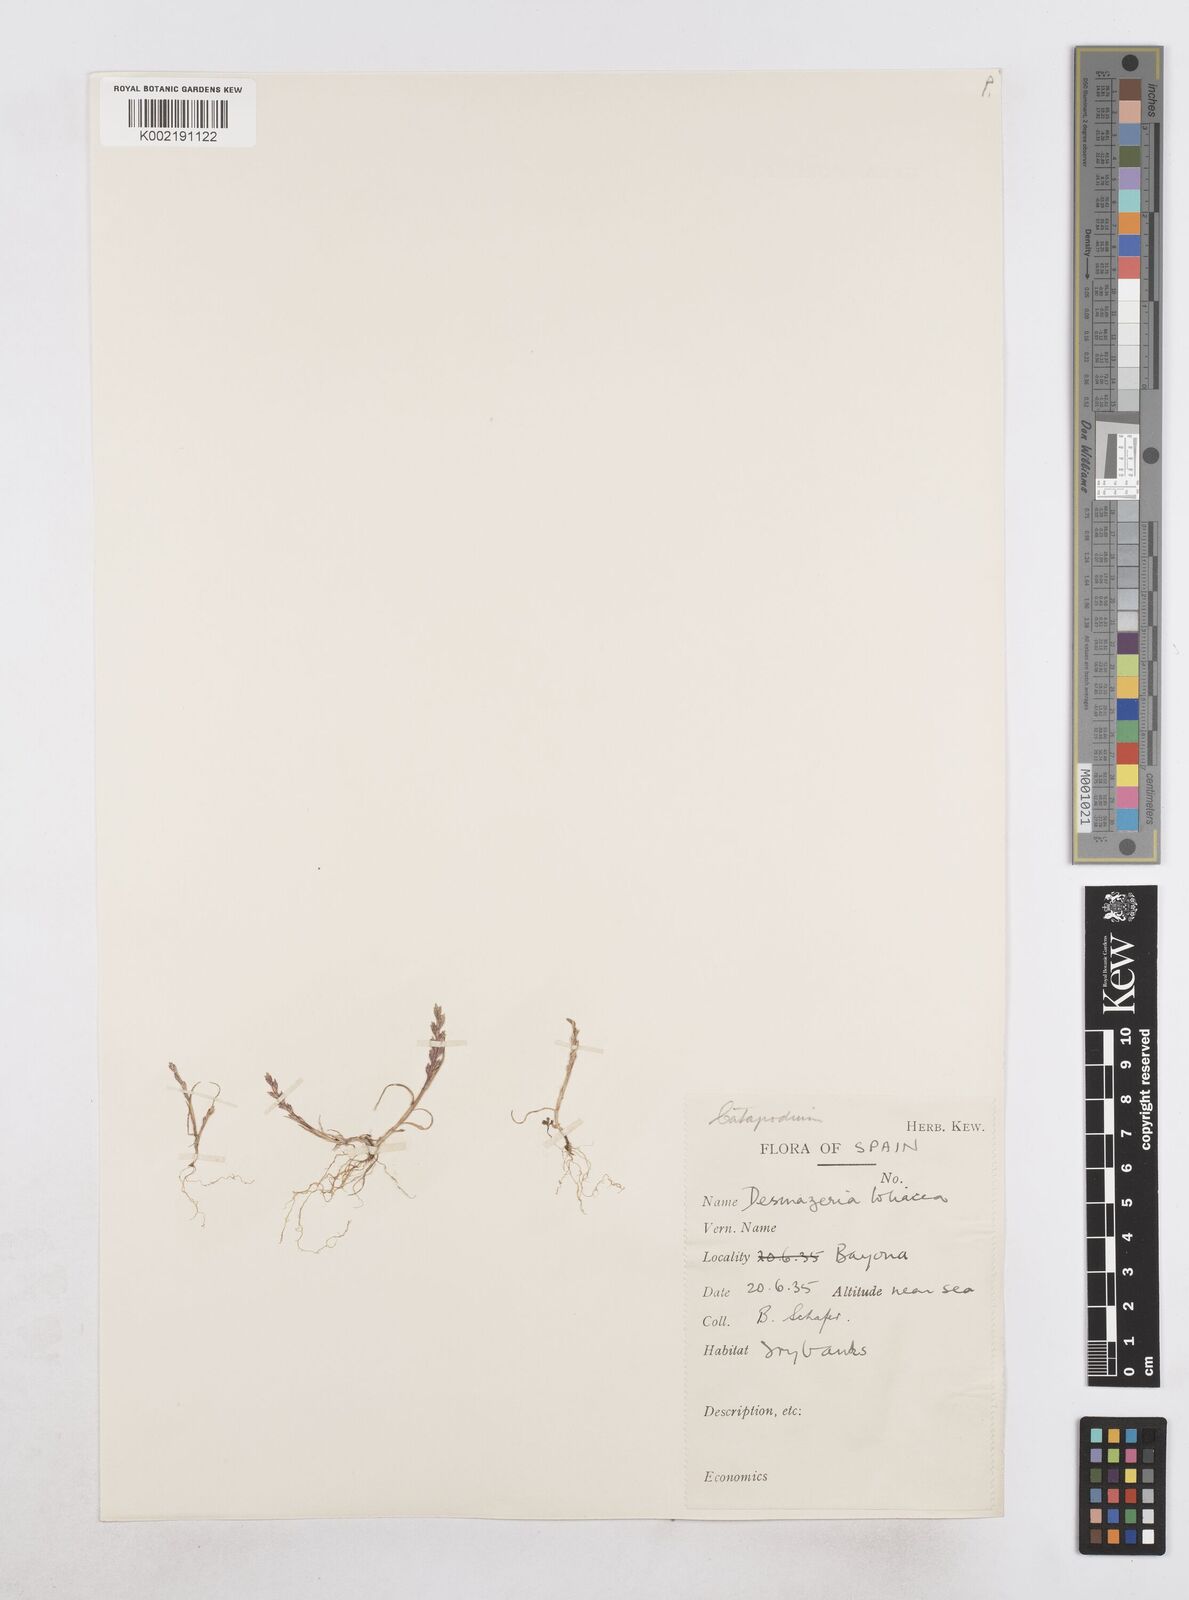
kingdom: Plantae
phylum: Tracheophyta
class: Liliopsida
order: Poales
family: Poaceae
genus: Catapodium
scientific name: Catapodium marinum
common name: Sea fern-grass
